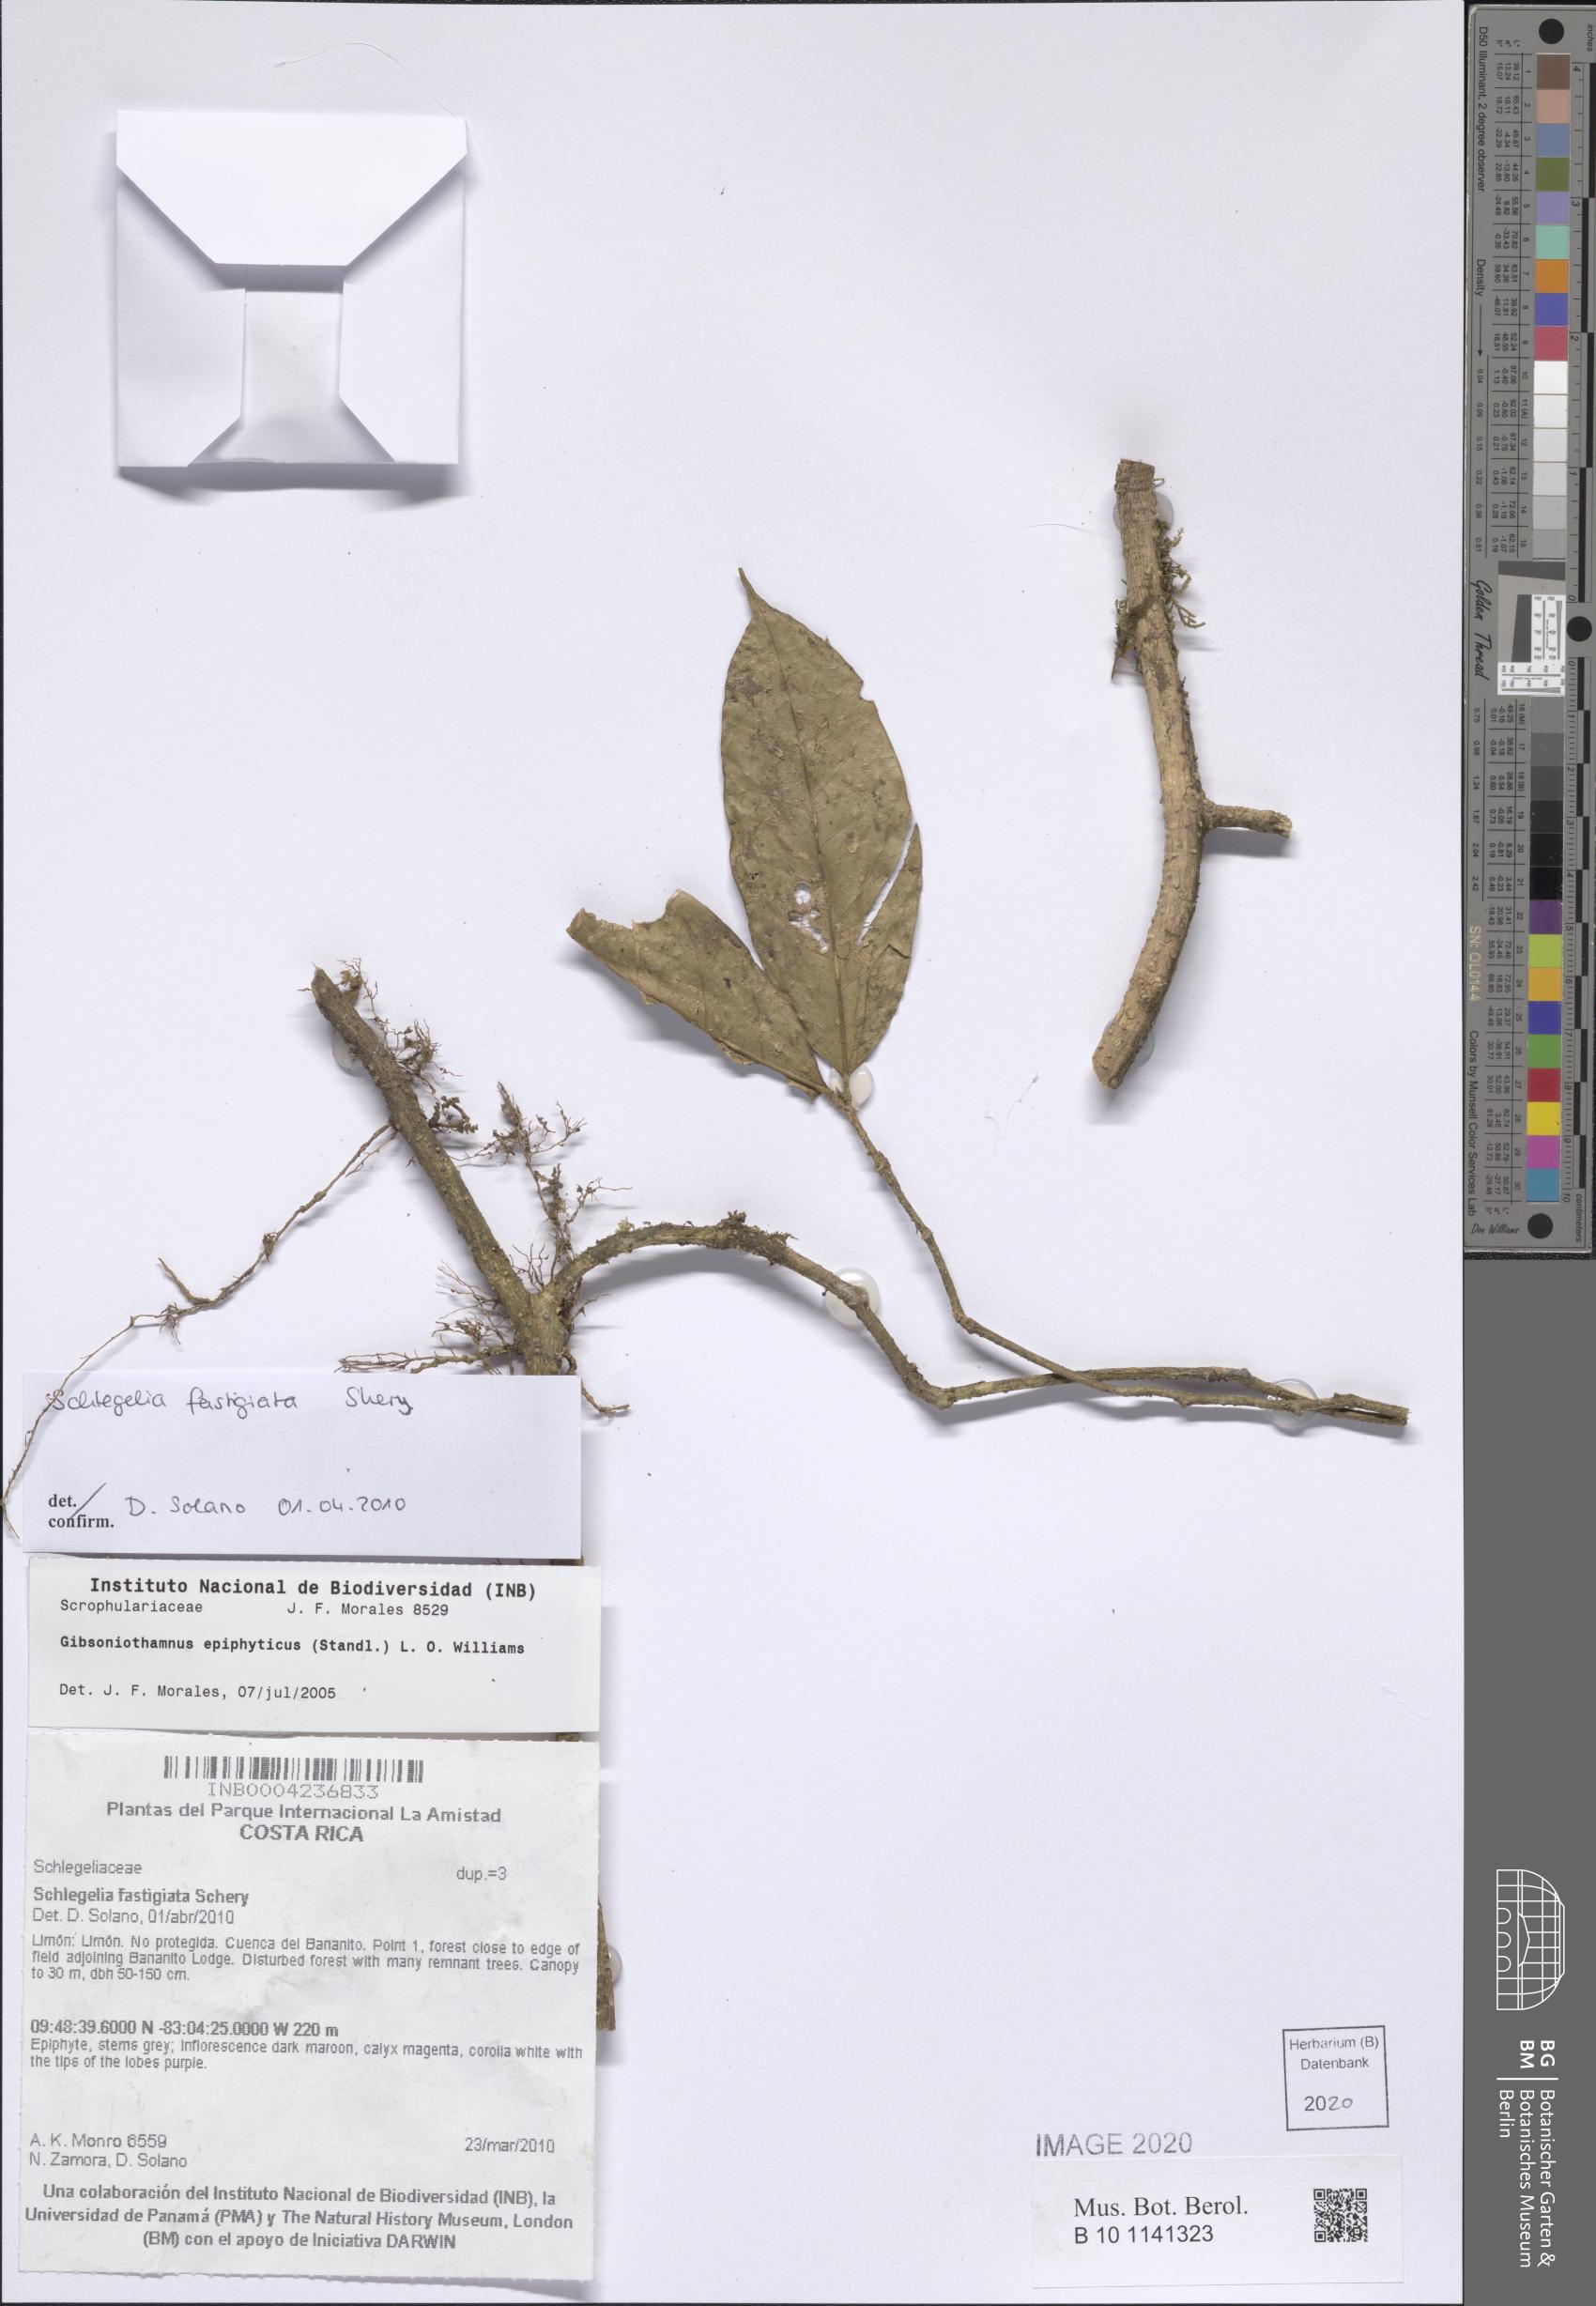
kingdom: Plantae
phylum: Tracheophyta
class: Magnoliopsida
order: Lamiales
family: Schlegeliaceae
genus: Schlegelia
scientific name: Schlegelia fastigiata
